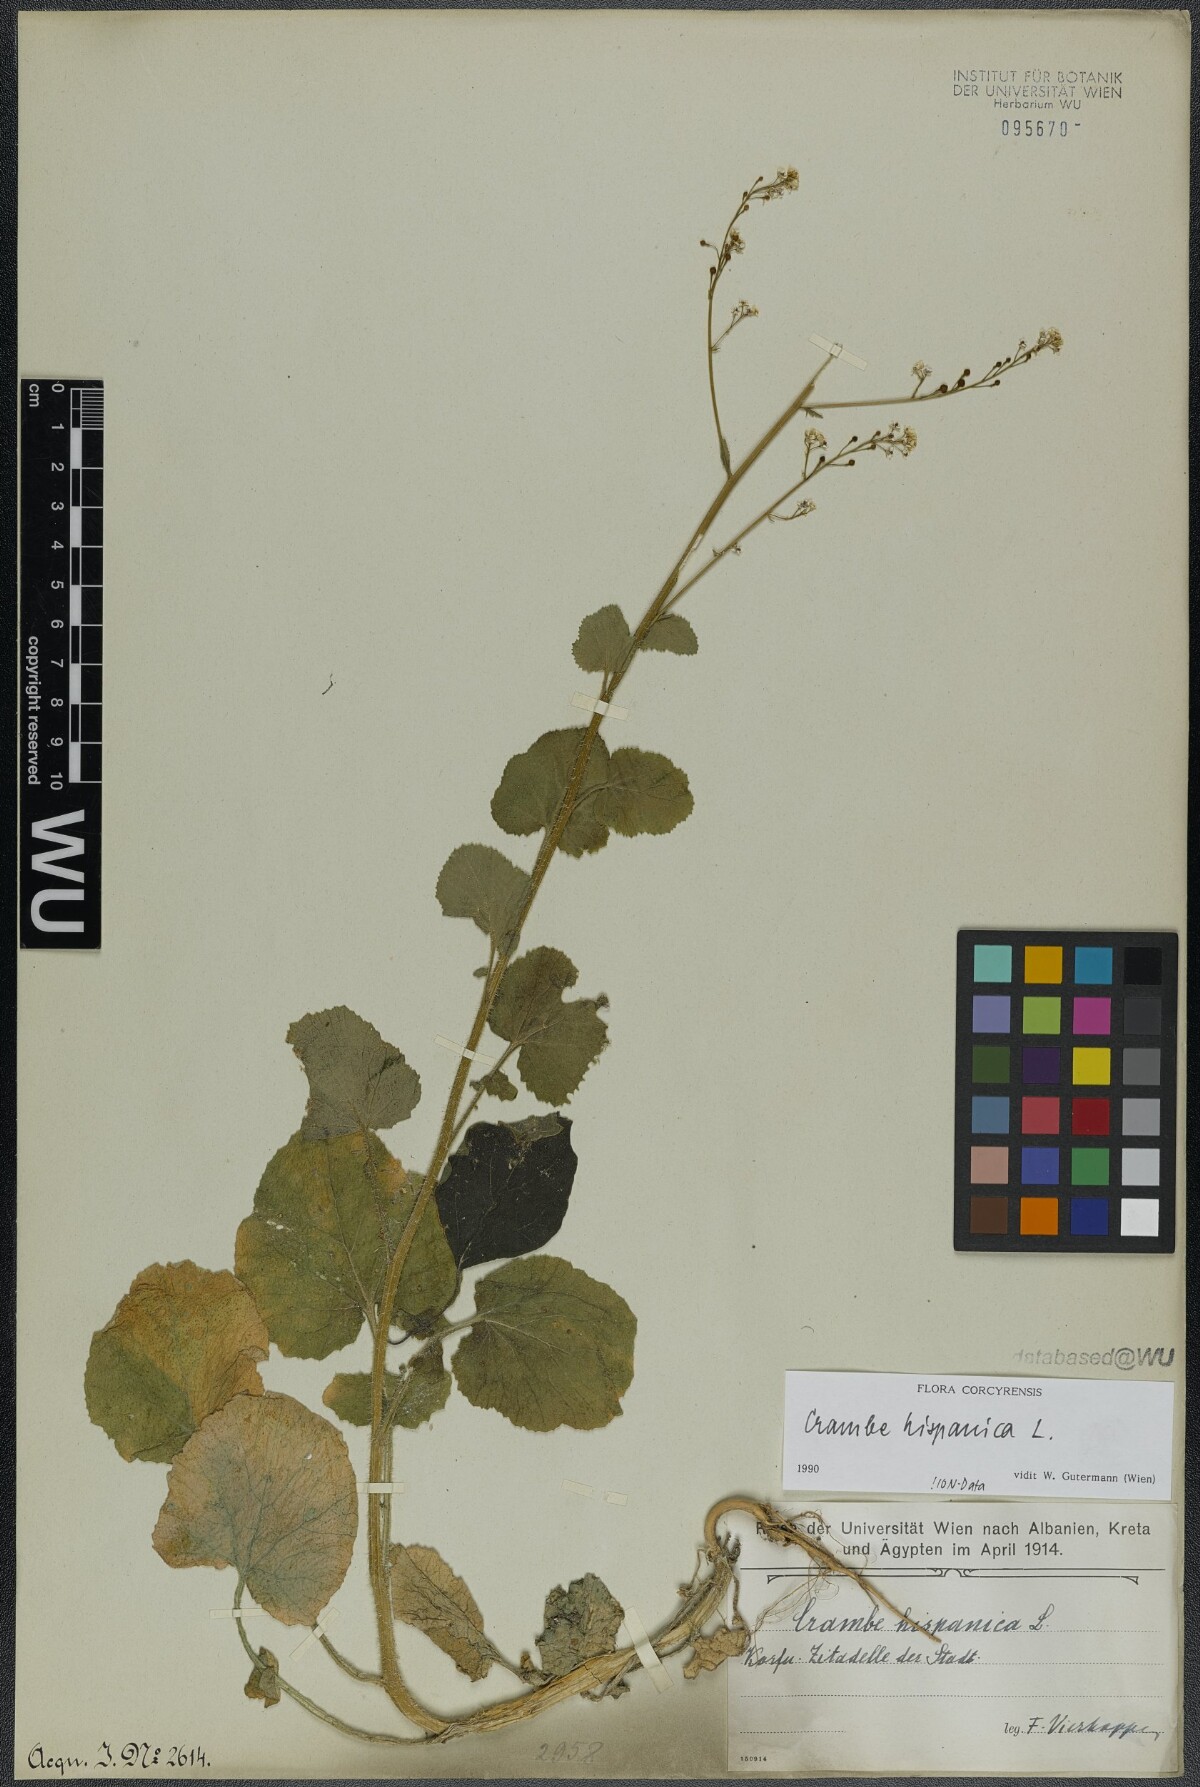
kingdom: Plantae
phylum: Tracheophyta
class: Magnoliopsida
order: Brassicales
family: Brassicaceae
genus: Crambe
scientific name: Crambe hispanica
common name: Abyssinian mustard
